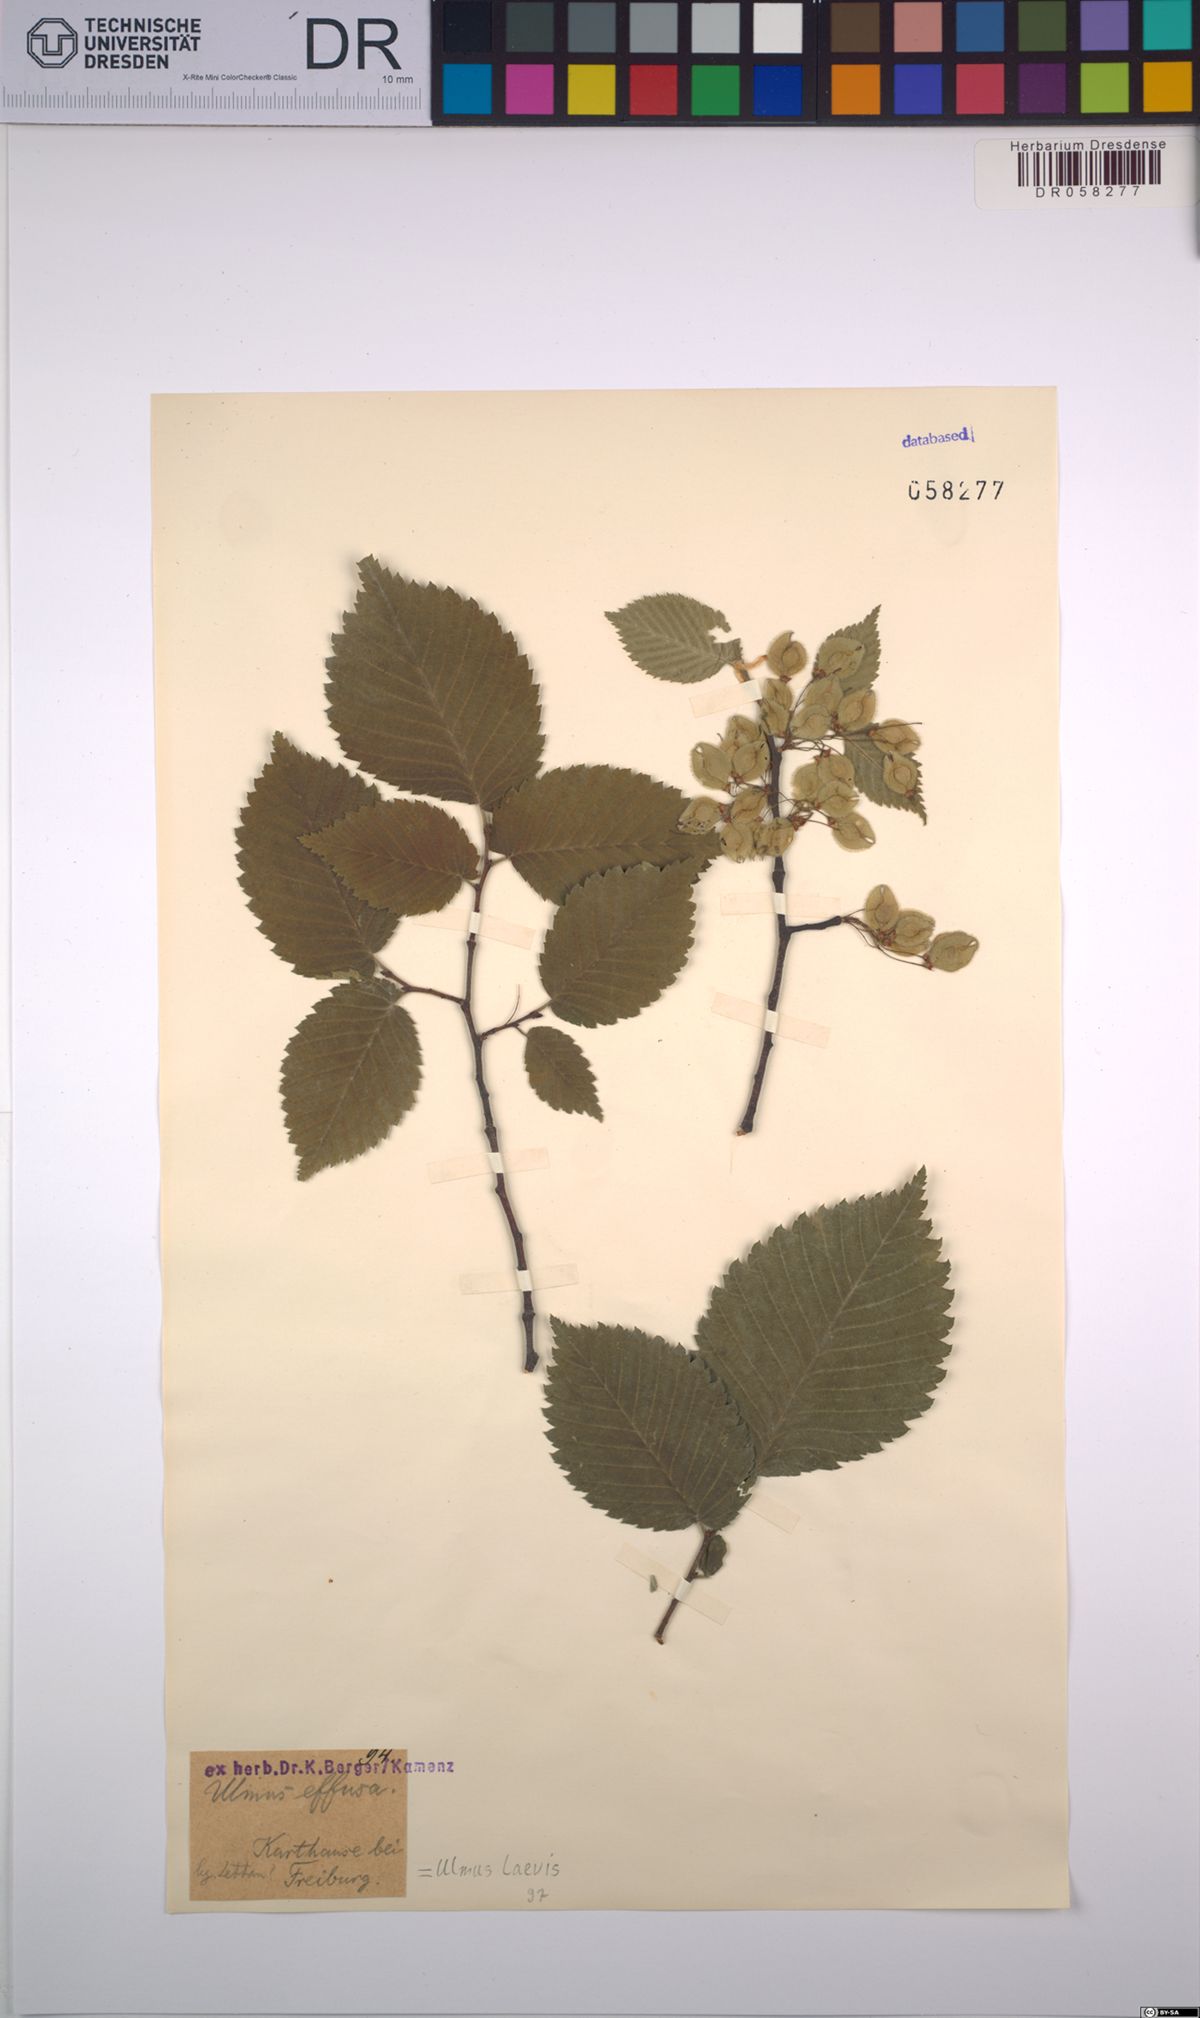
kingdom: Plantae
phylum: Tracheophyta
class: Magnoliopsida
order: Rosales
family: Ulmaceae
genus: Ulmus
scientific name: Ulmus laevis
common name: European white-elm
